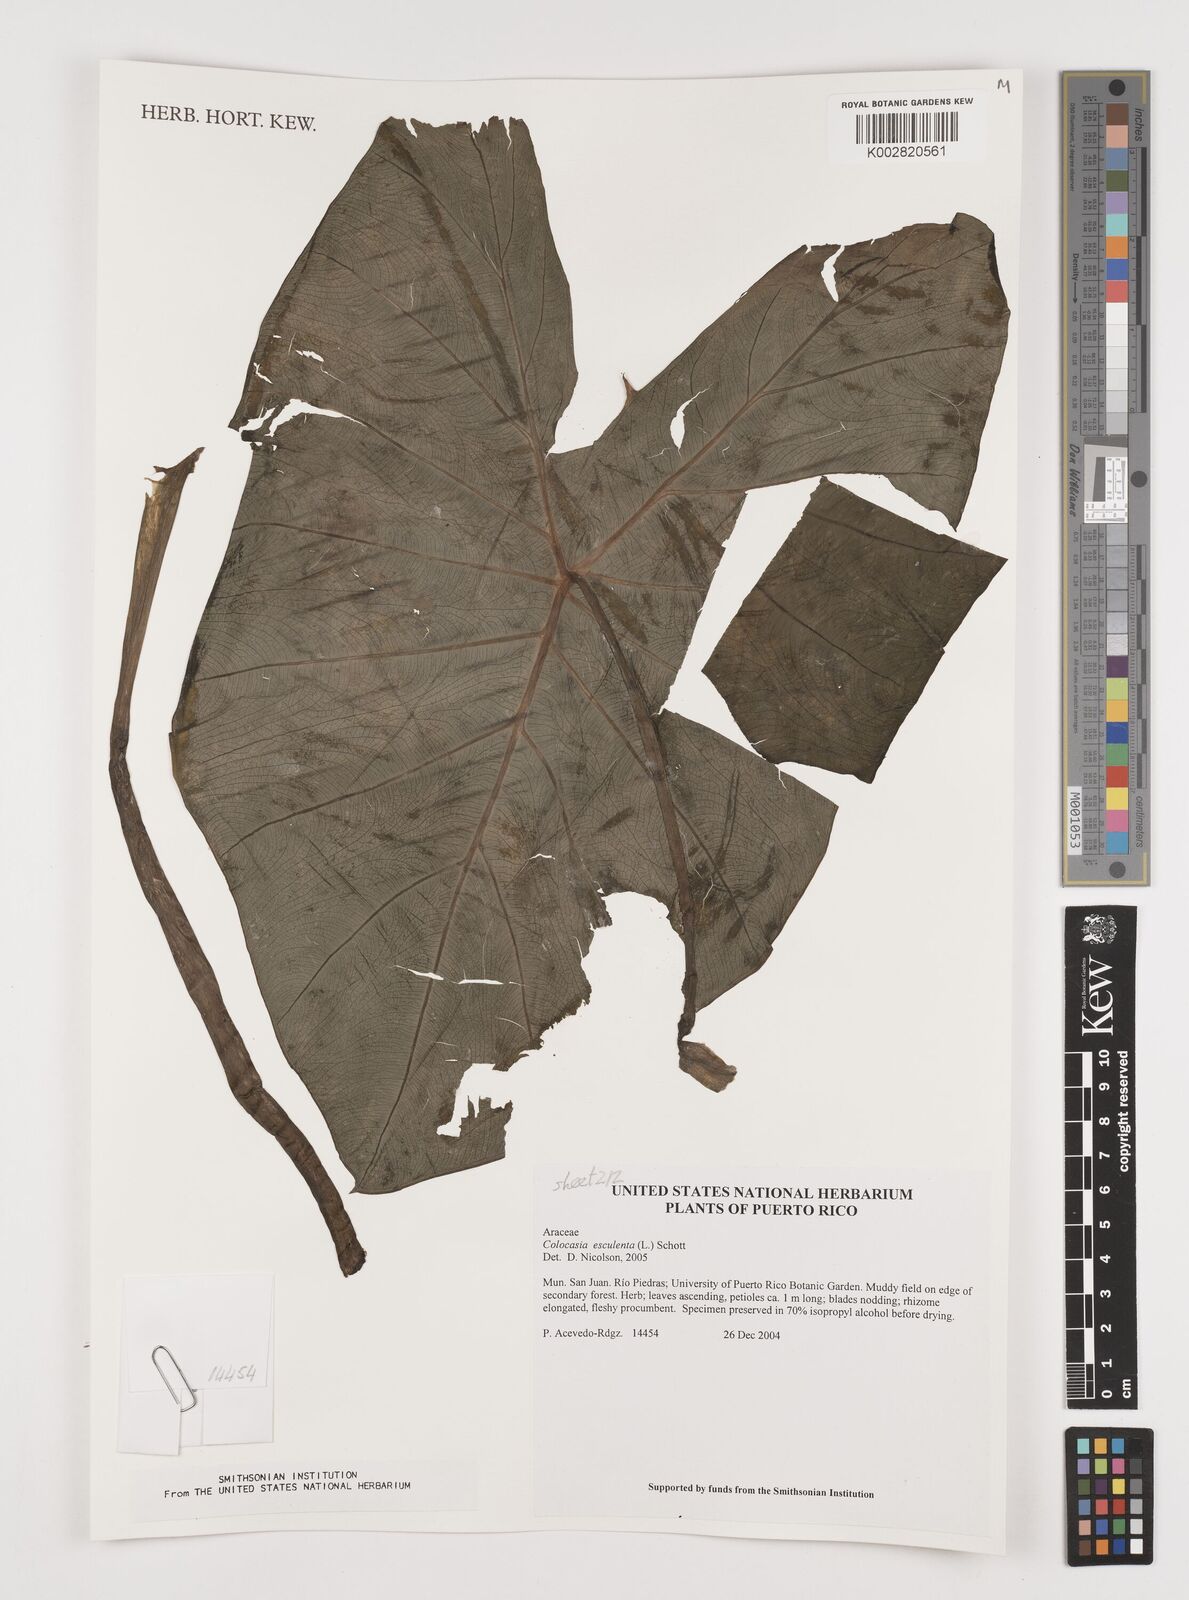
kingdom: Plantae
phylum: Tracheophyta
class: Liliopsida
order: Alismatales
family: Araceae
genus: Colocasia
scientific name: Colocasia esculenta
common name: Taro
